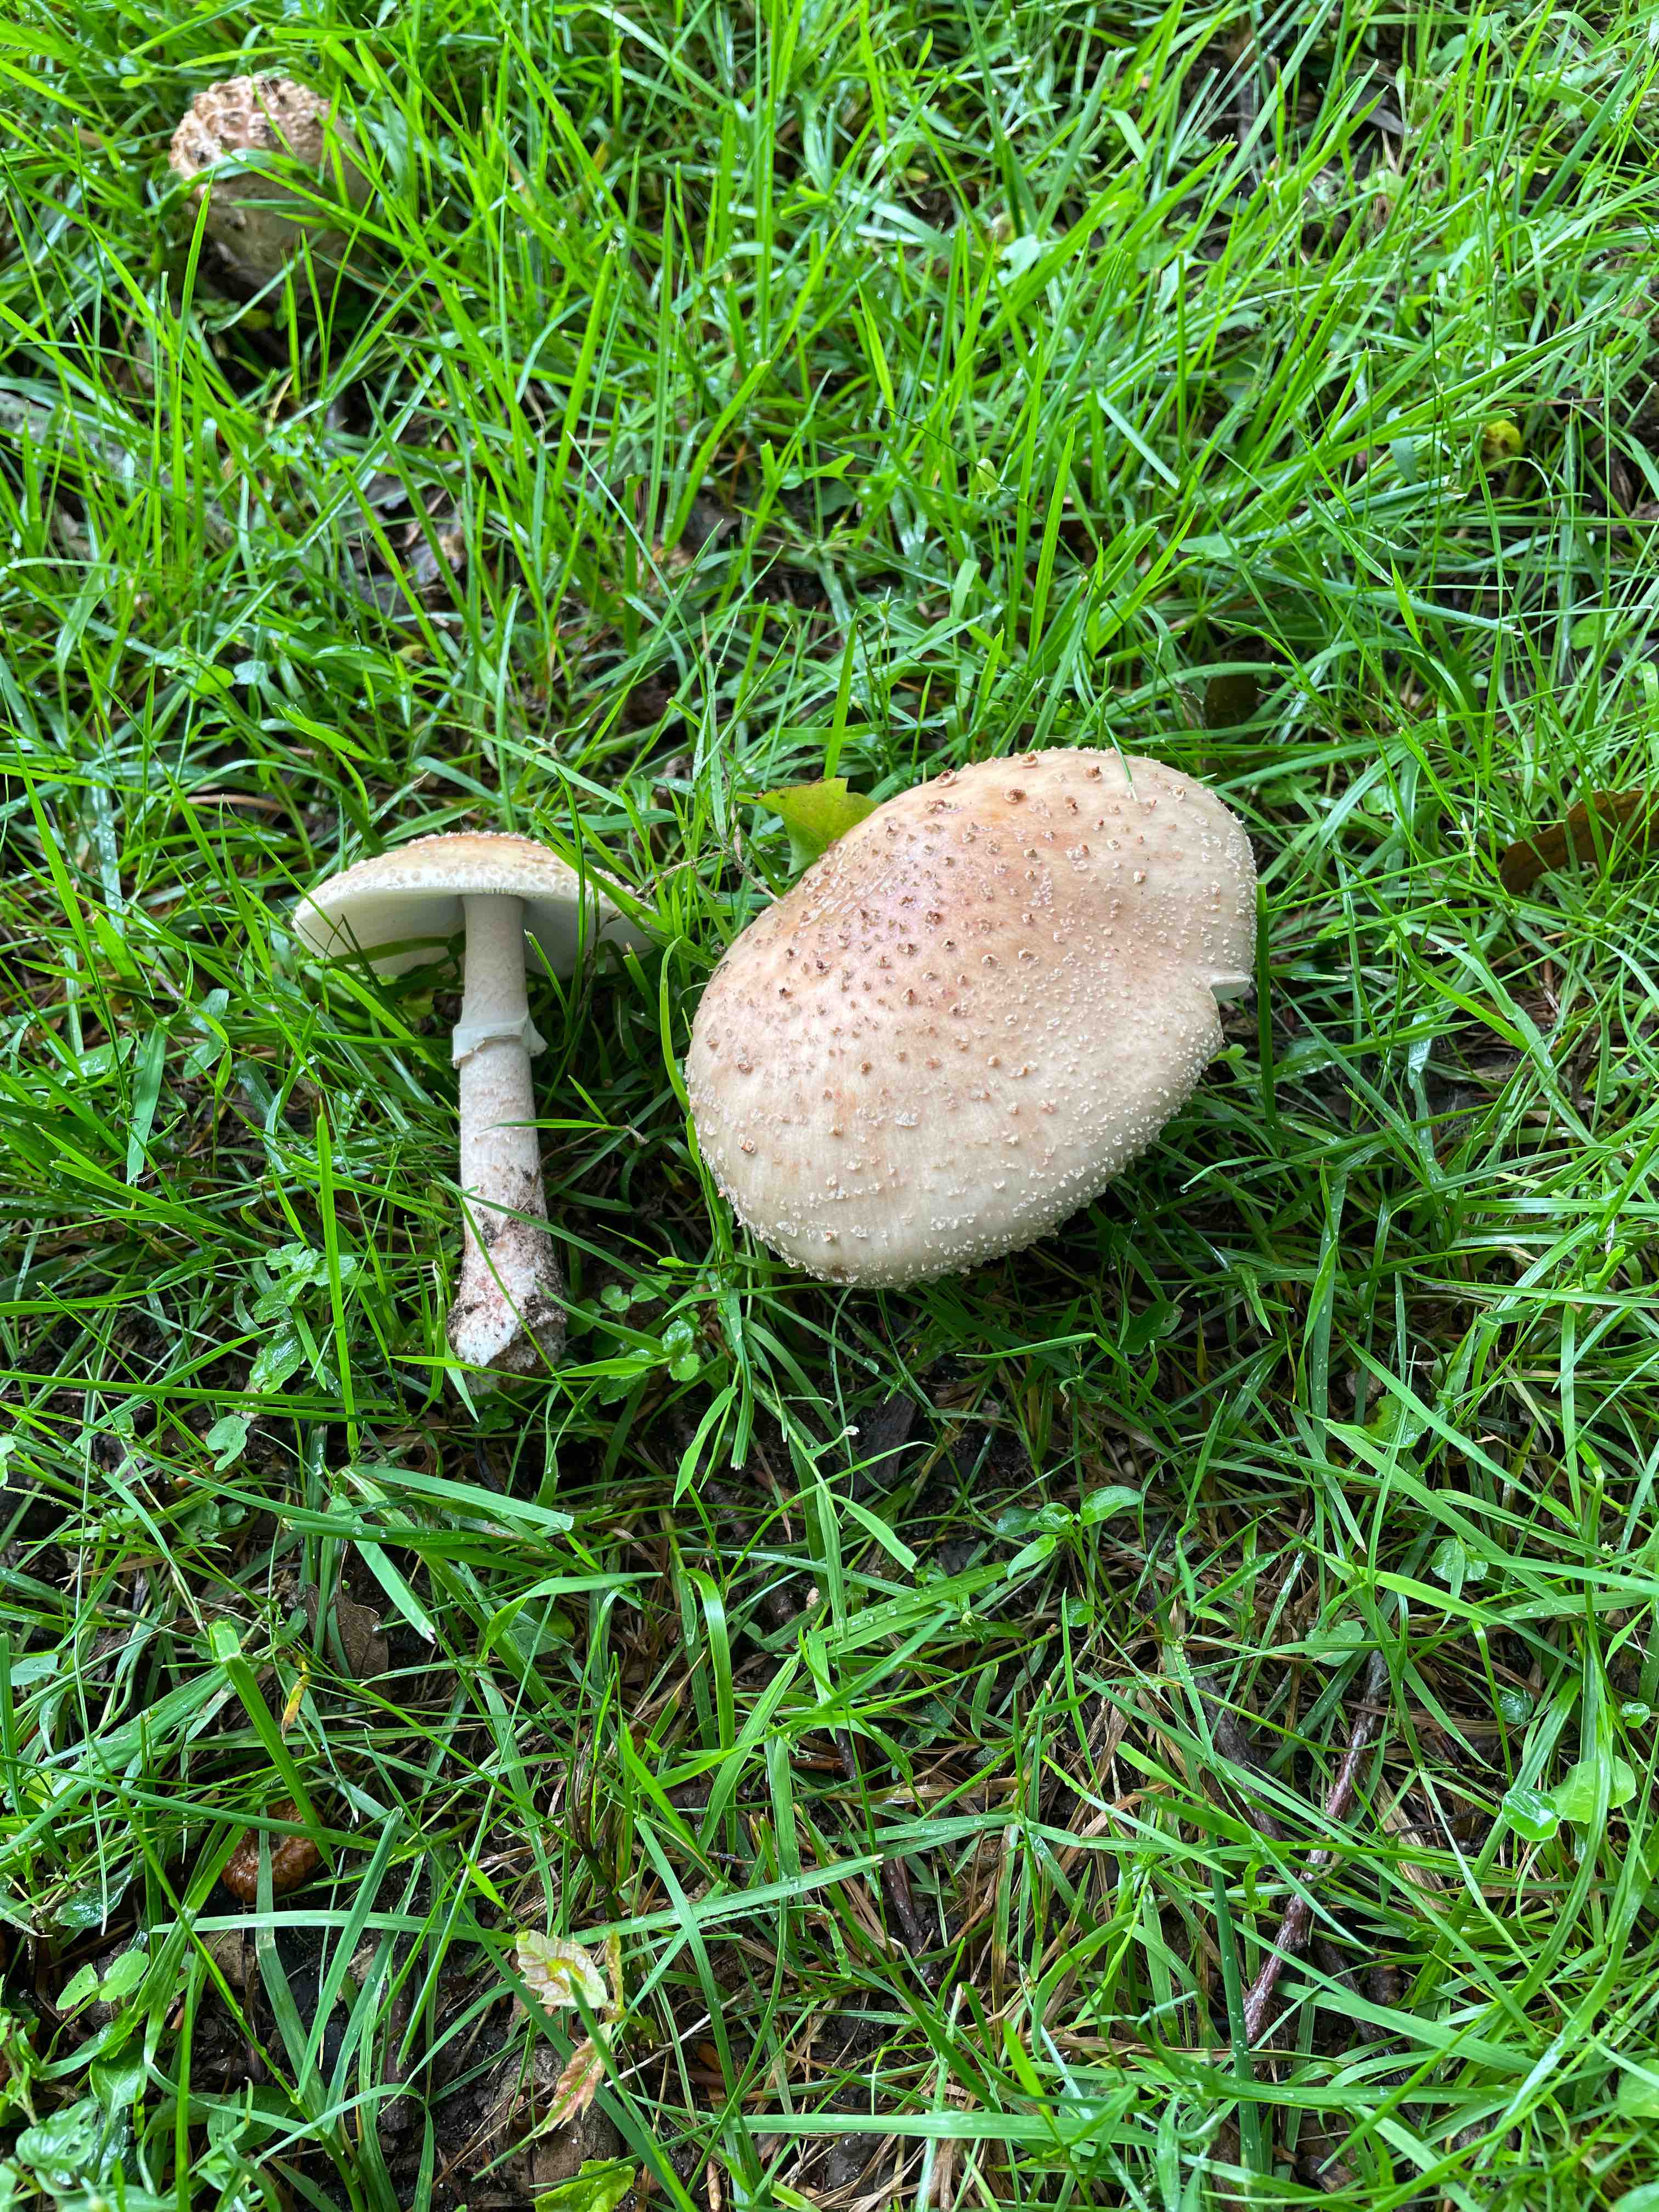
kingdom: Fungi
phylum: Basidiomycota
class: Agaricomycetes
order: Agaricales
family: Amanitaceae
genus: Amanita
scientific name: Amanita rubescens
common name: rødmende fluesvamp
